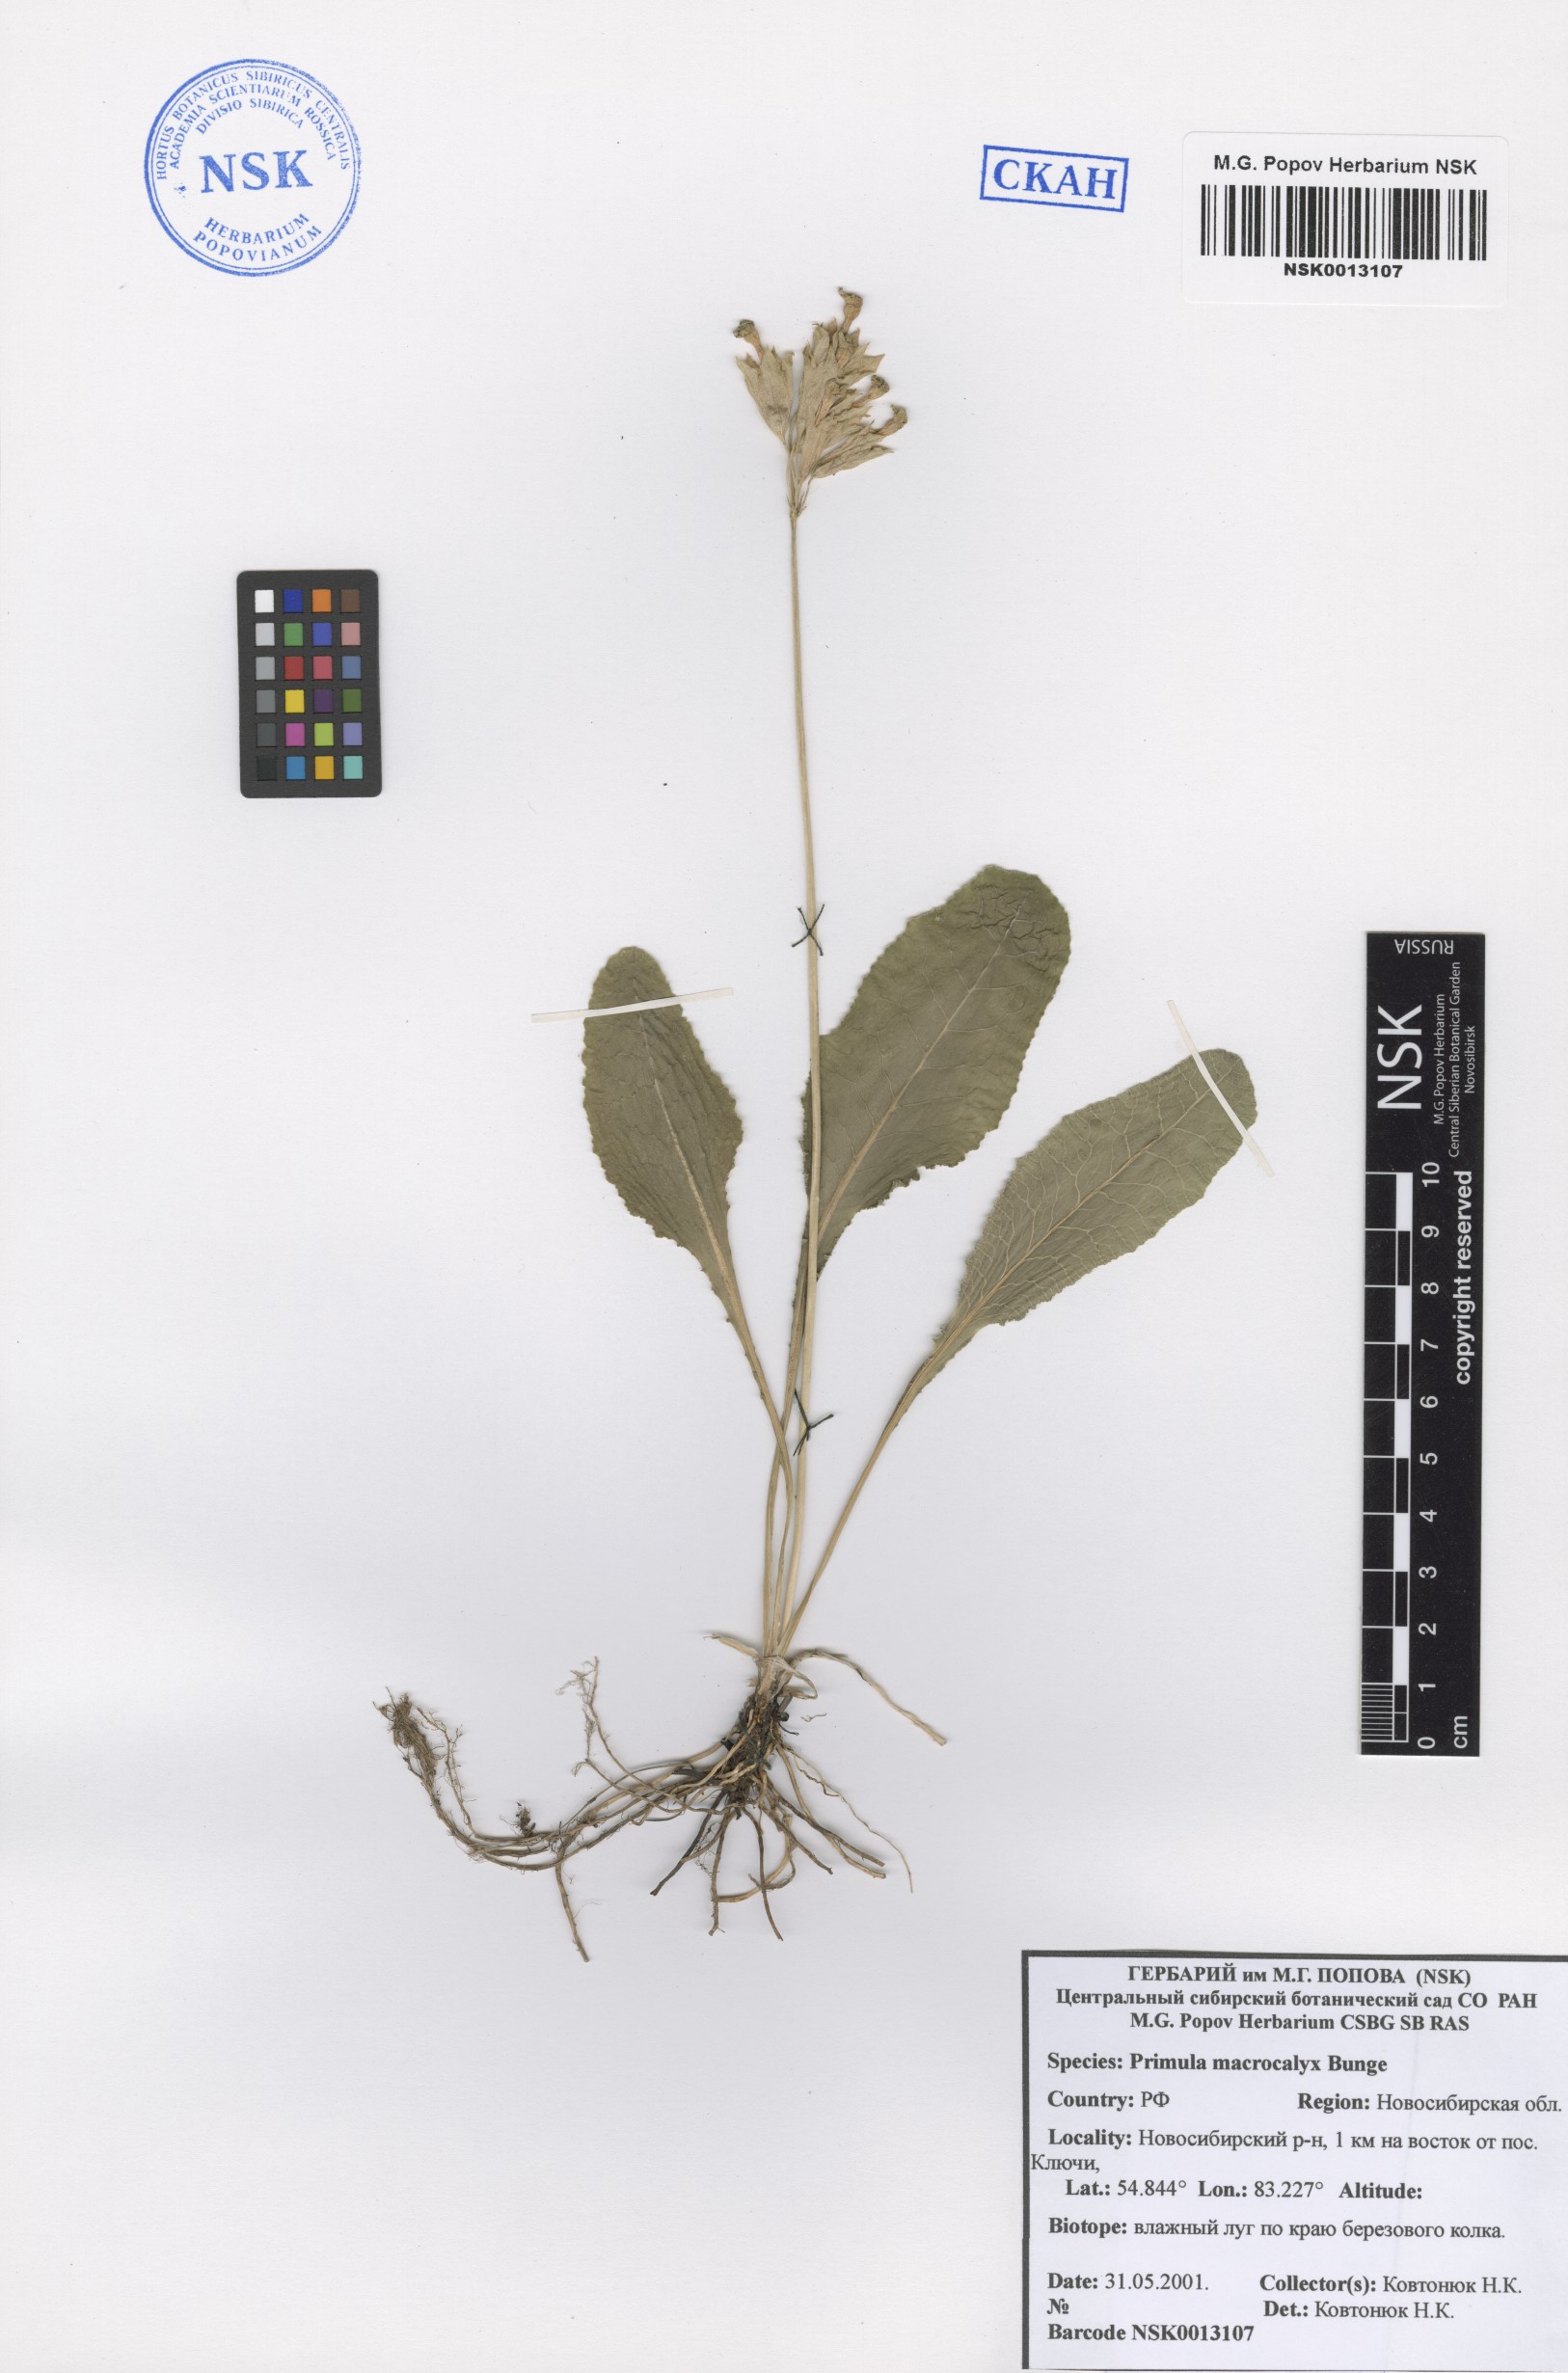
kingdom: Plantae
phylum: Tracheophyta
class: Magnoliopsida
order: Ericales
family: Primulaceae
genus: Primula
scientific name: Primula veris
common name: Cowslip
